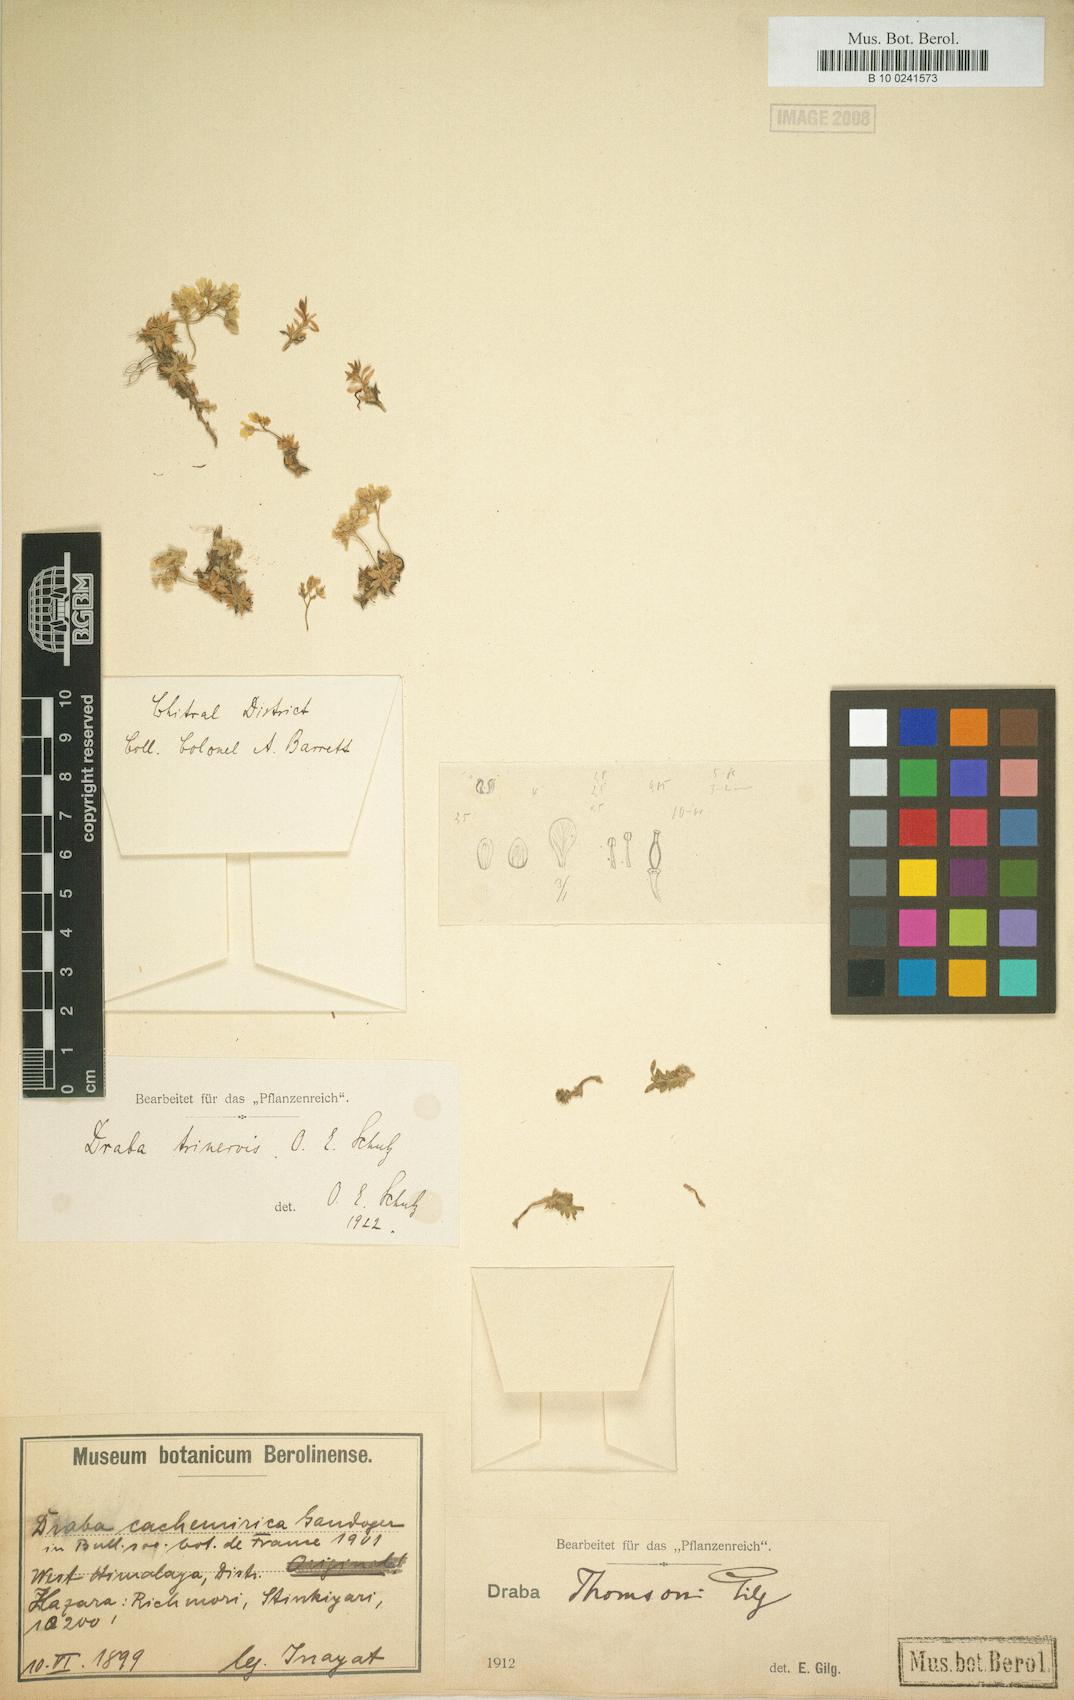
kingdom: Plantae
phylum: Tracheophyta
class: Magnoliopsida
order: Brassicales
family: Brassicaceae
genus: Draba
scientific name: Draba trinervis
